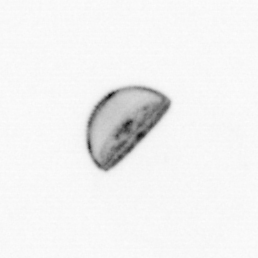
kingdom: Chromista
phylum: Ochrophyta
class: Bacillariophyceae
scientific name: Bacillariophyceae
